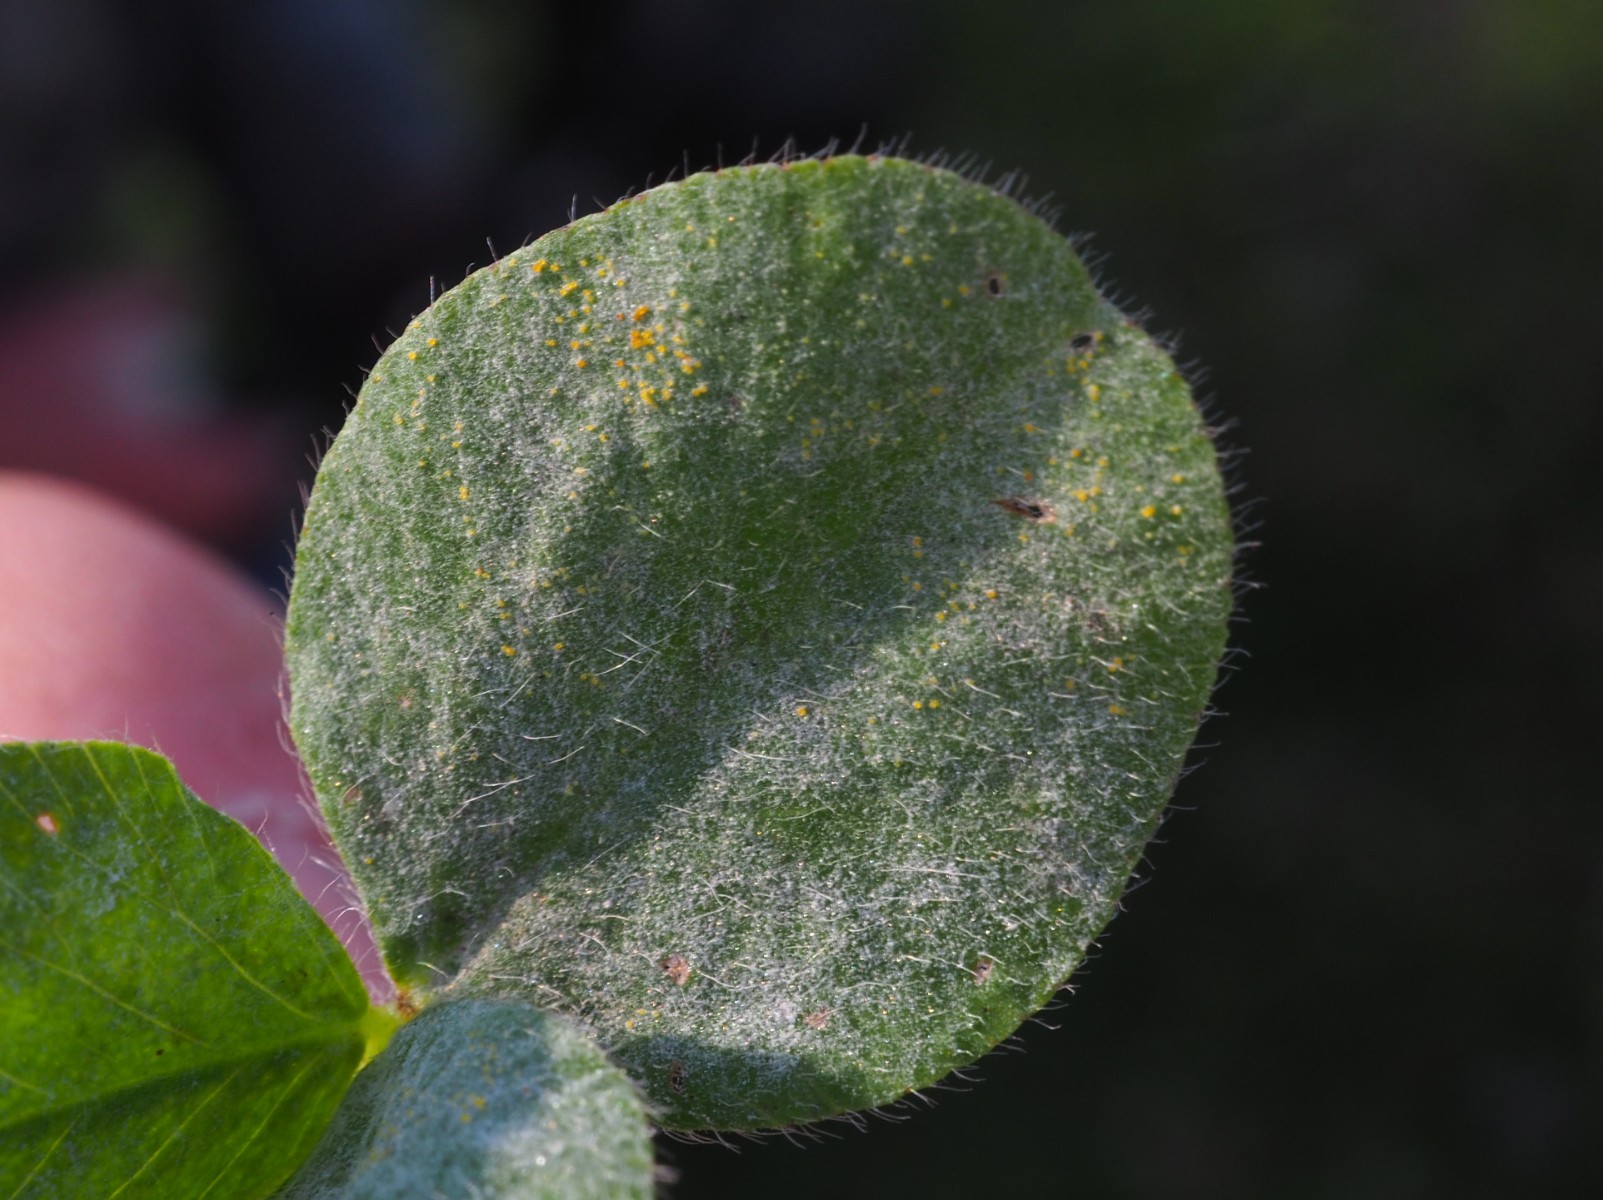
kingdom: Fungi
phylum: Ascomycota
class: Leotiomycetes
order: Helotiales
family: Erysiphaceae
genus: Erysiphe
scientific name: Erysiphe
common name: meldug
